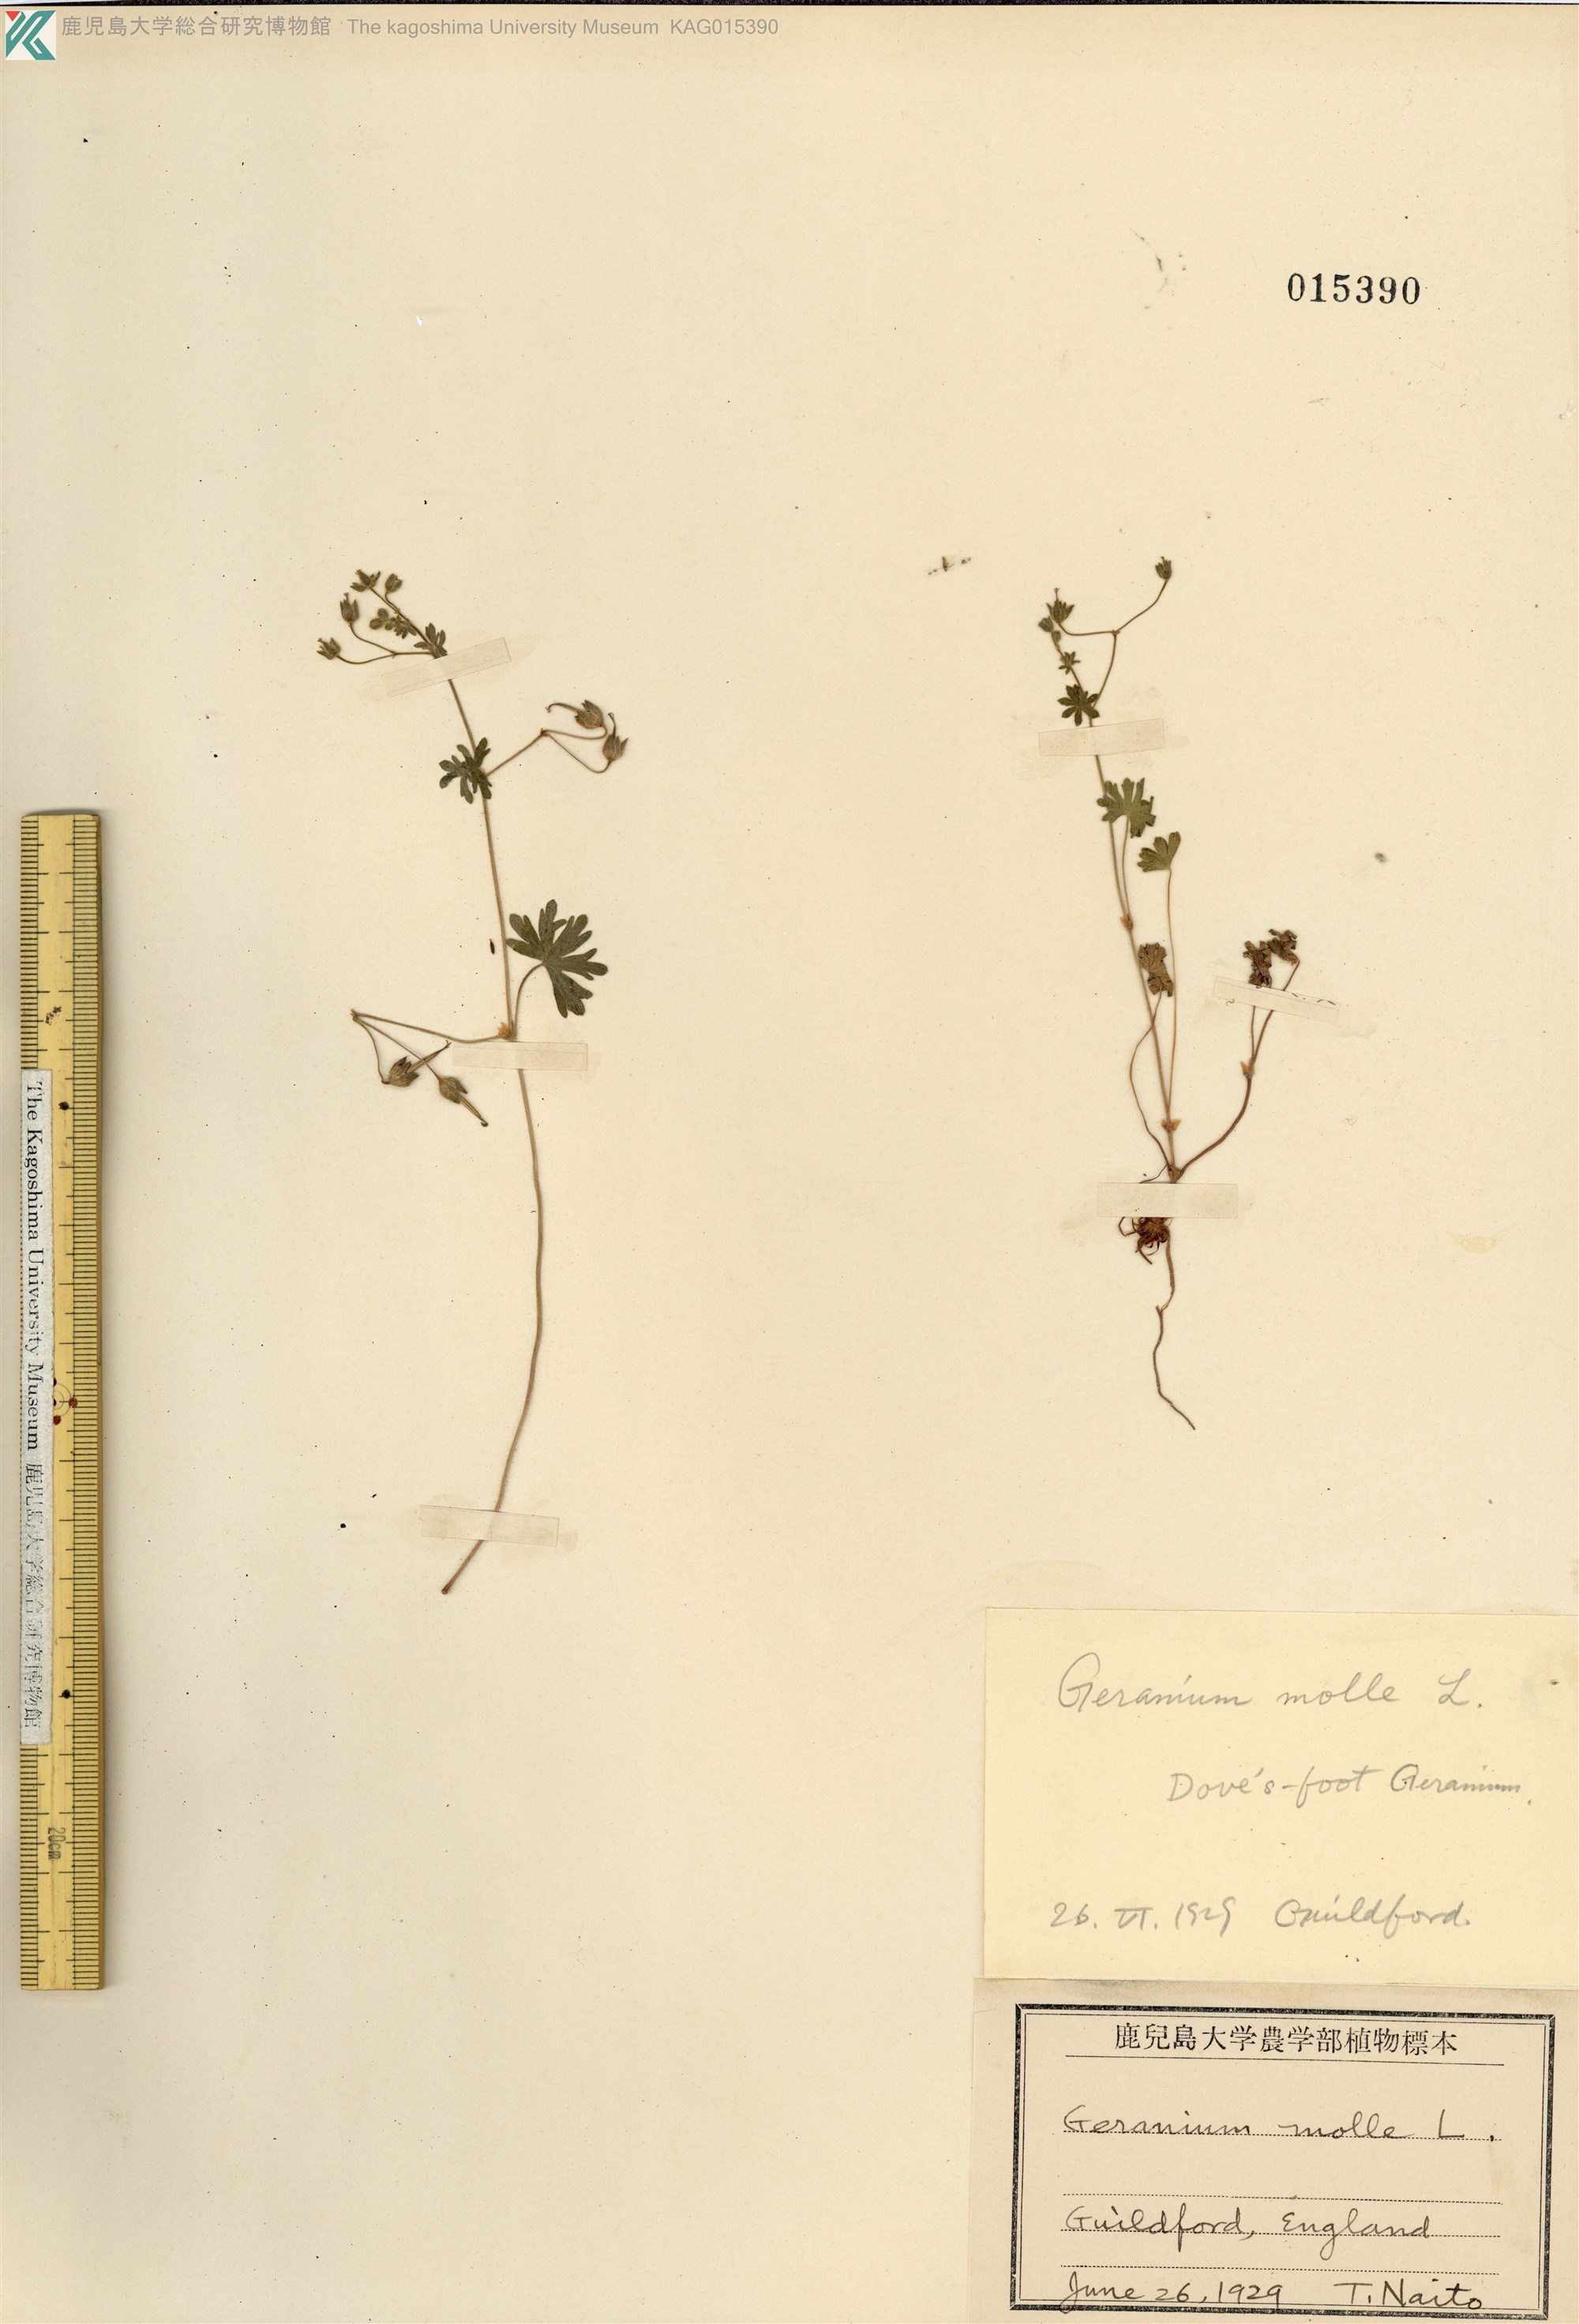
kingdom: Plantae
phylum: Tracheophyta
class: Magnoliopsida
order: Geraniales
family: Geraniaceae
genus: Geranium
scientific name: Geranium molle
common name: Dove's-foot crane's-bill
